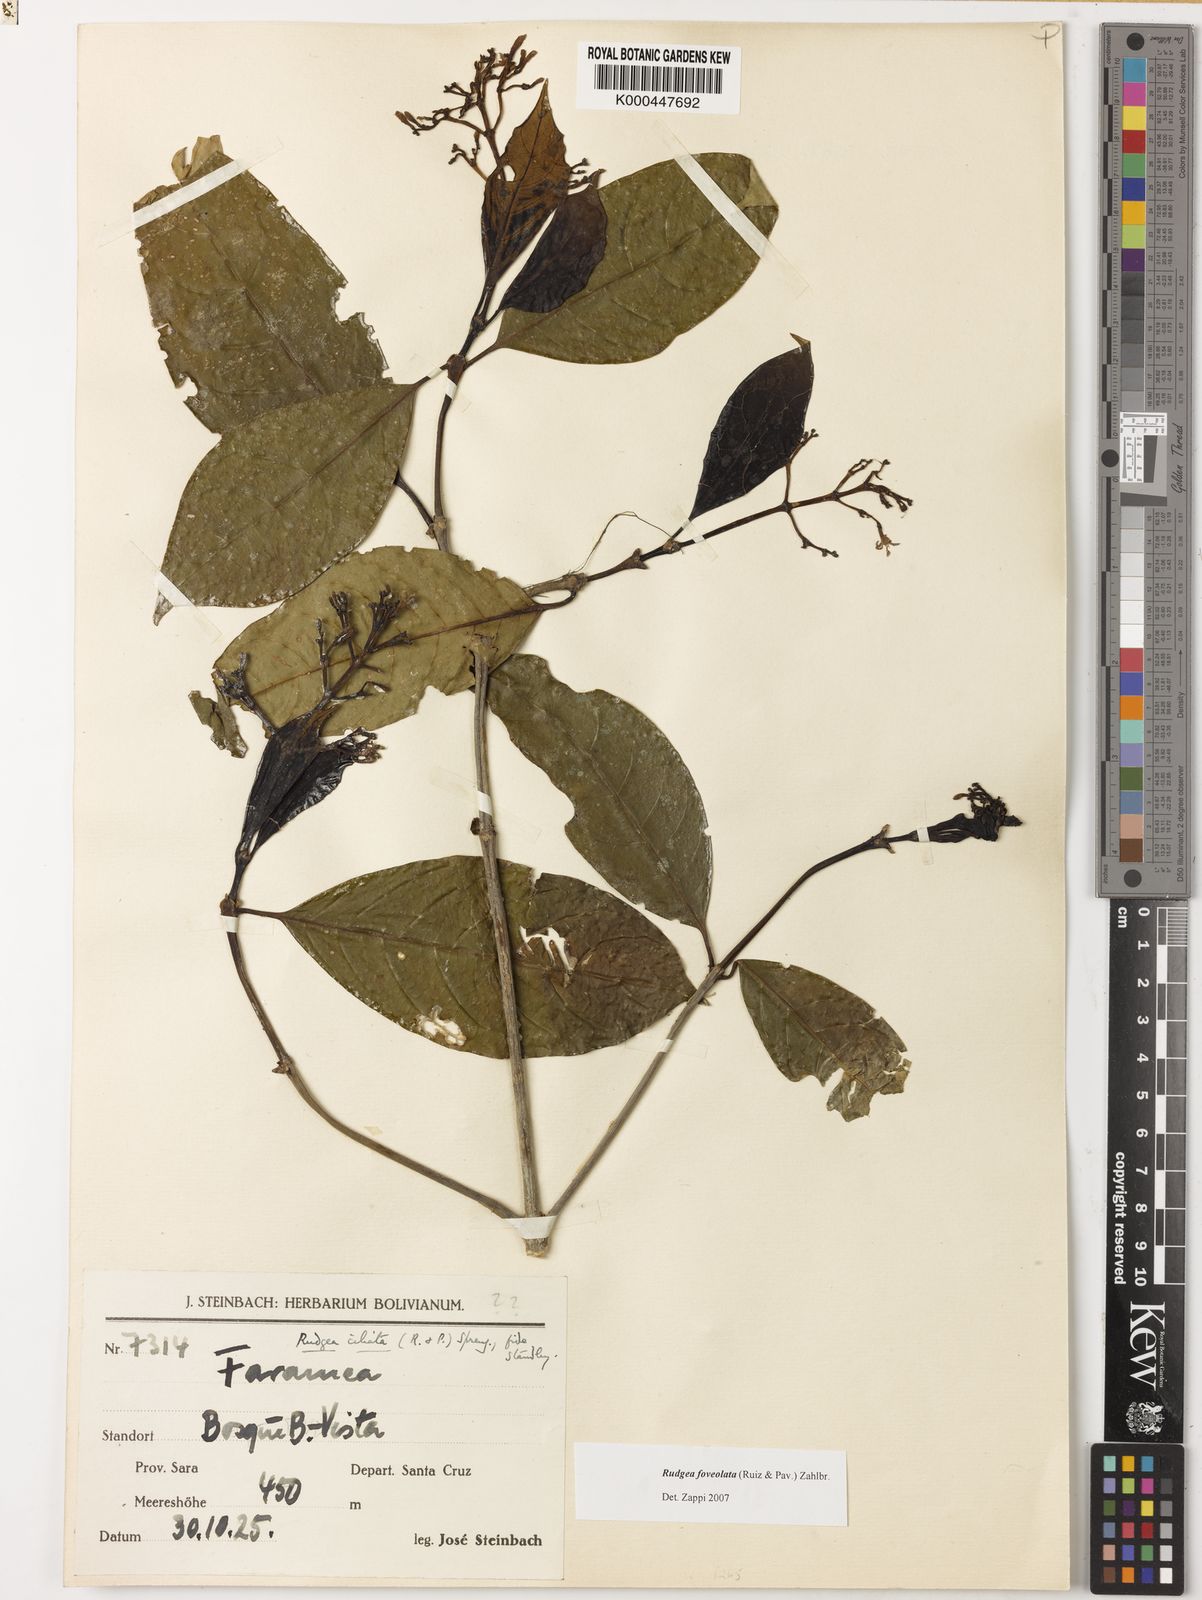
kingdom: Plantae
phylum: Tracheophyta
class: Magnoliopsida
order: Gentianales
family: Rubiaceae
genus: Rudgea
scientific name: Rudgea foveolata
